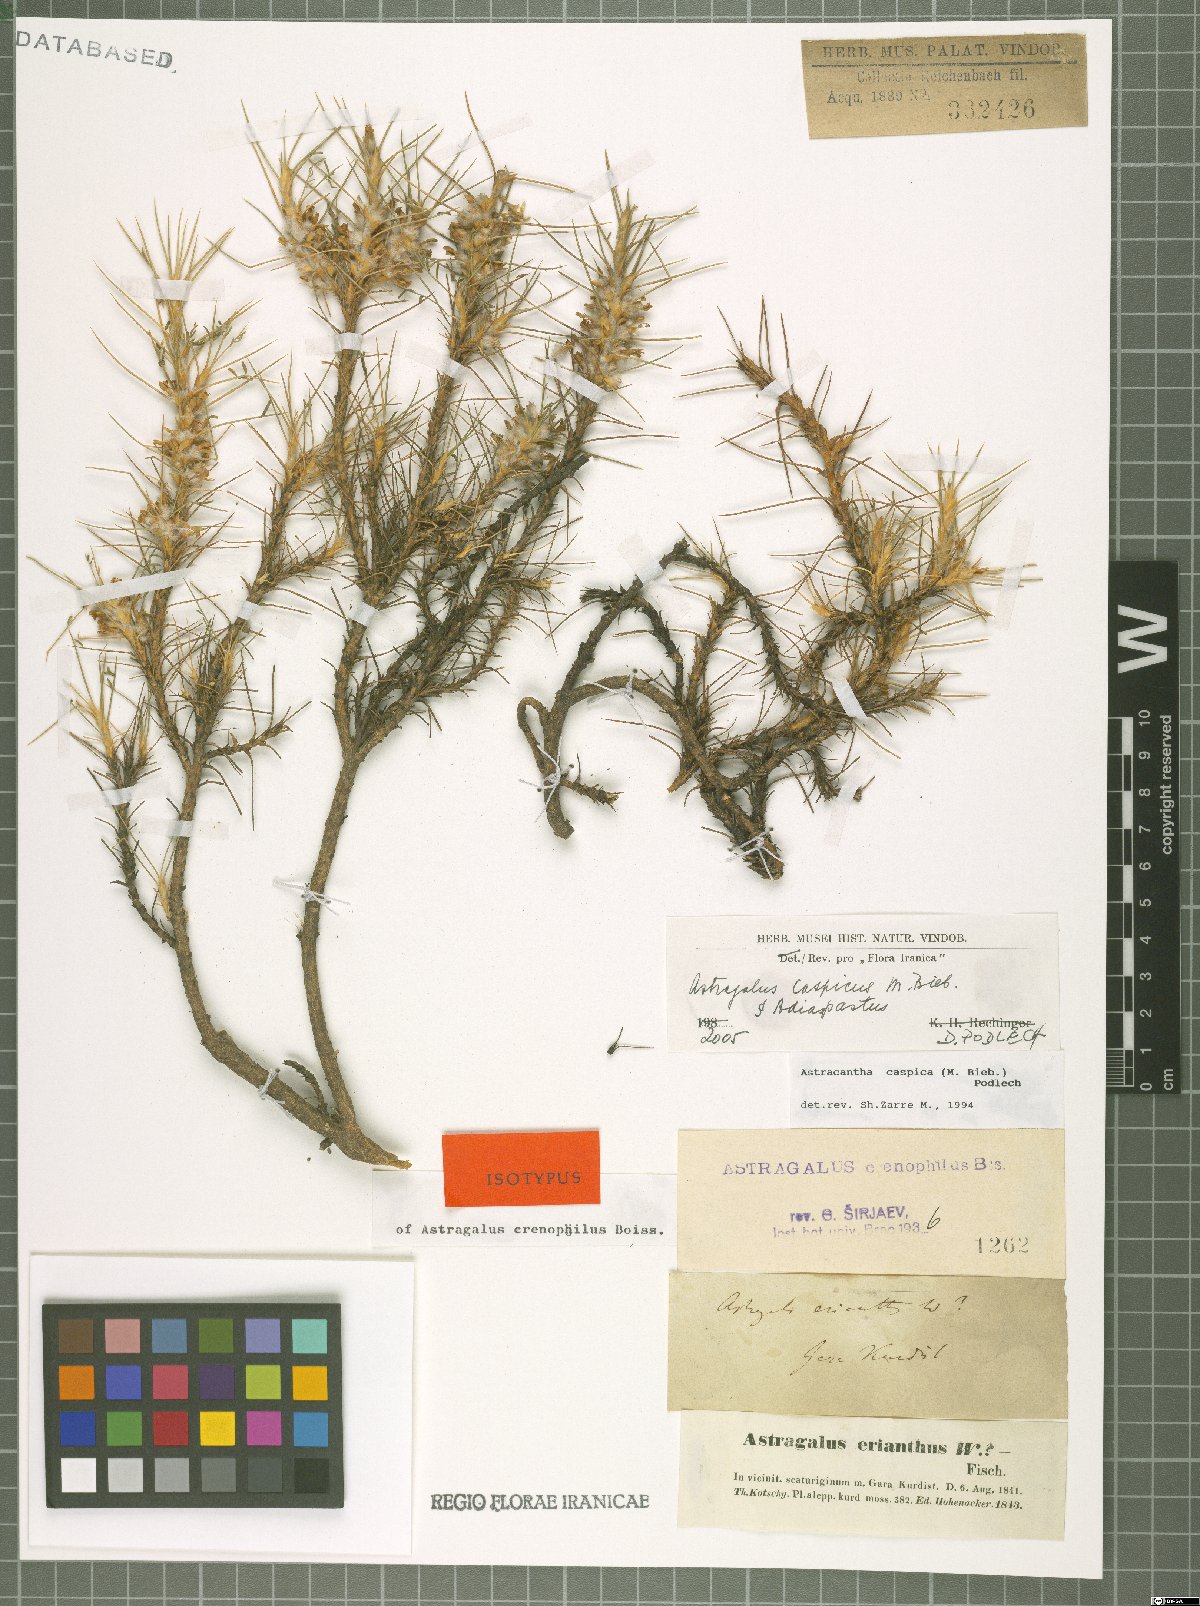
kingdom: Plantae
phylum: Tracheophyta
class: Magnoliopsida
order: Fabales
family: Fabaceae
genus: Astragalus
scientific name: Astragalus caspicus
